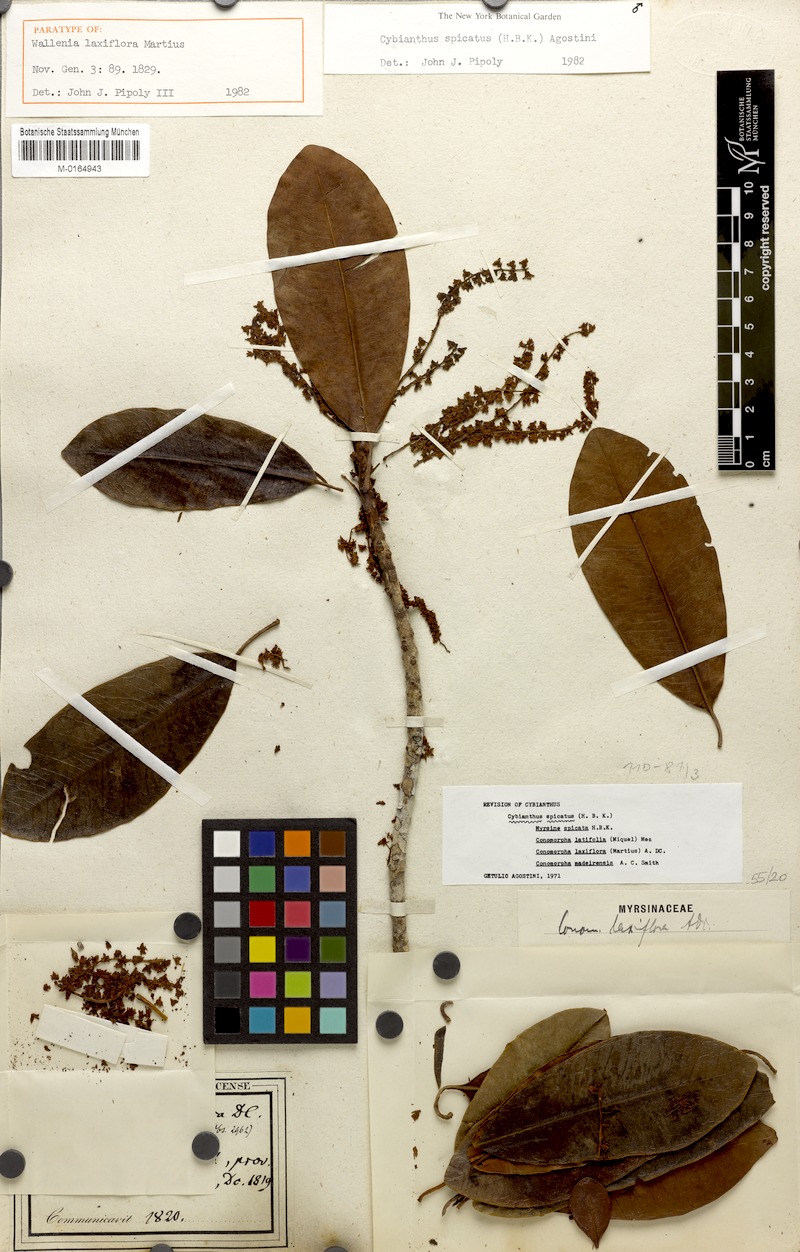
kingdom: Plantae
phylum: Tracheophyta
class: Magnoliopsida
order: Ericales
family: Primulaceae
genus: Cybianthus
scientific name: Cybianthus spicatus
